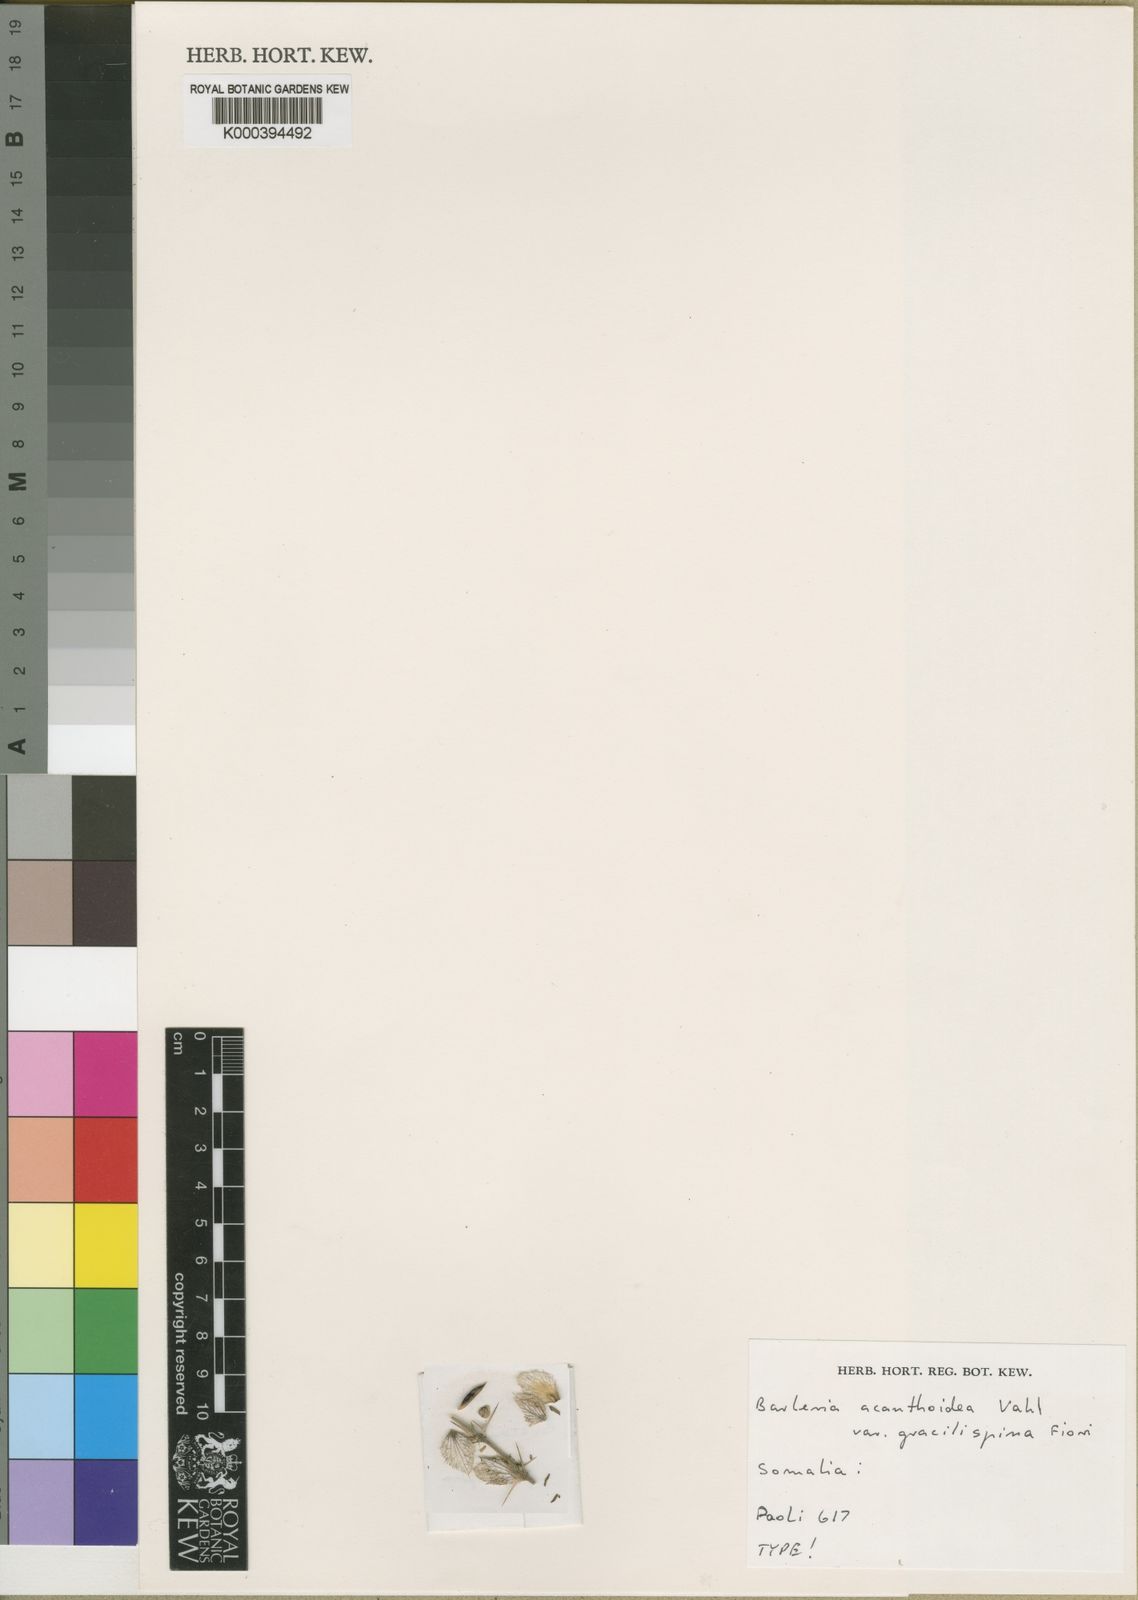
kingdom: Plantae
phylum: Tracheophyta
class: Magnoliopsida
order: Lamiales
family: Acanthaceae
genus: Barleria
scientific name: Barleria lanceata
